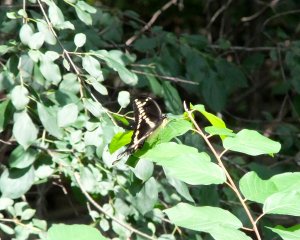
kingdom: Animalia
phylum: Arthropoda
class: Insecta
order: Lepidoptera
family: Papilionidae
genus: Papilio
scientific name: Papilio cresphontes
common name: Eastern Giant Swallowtail
